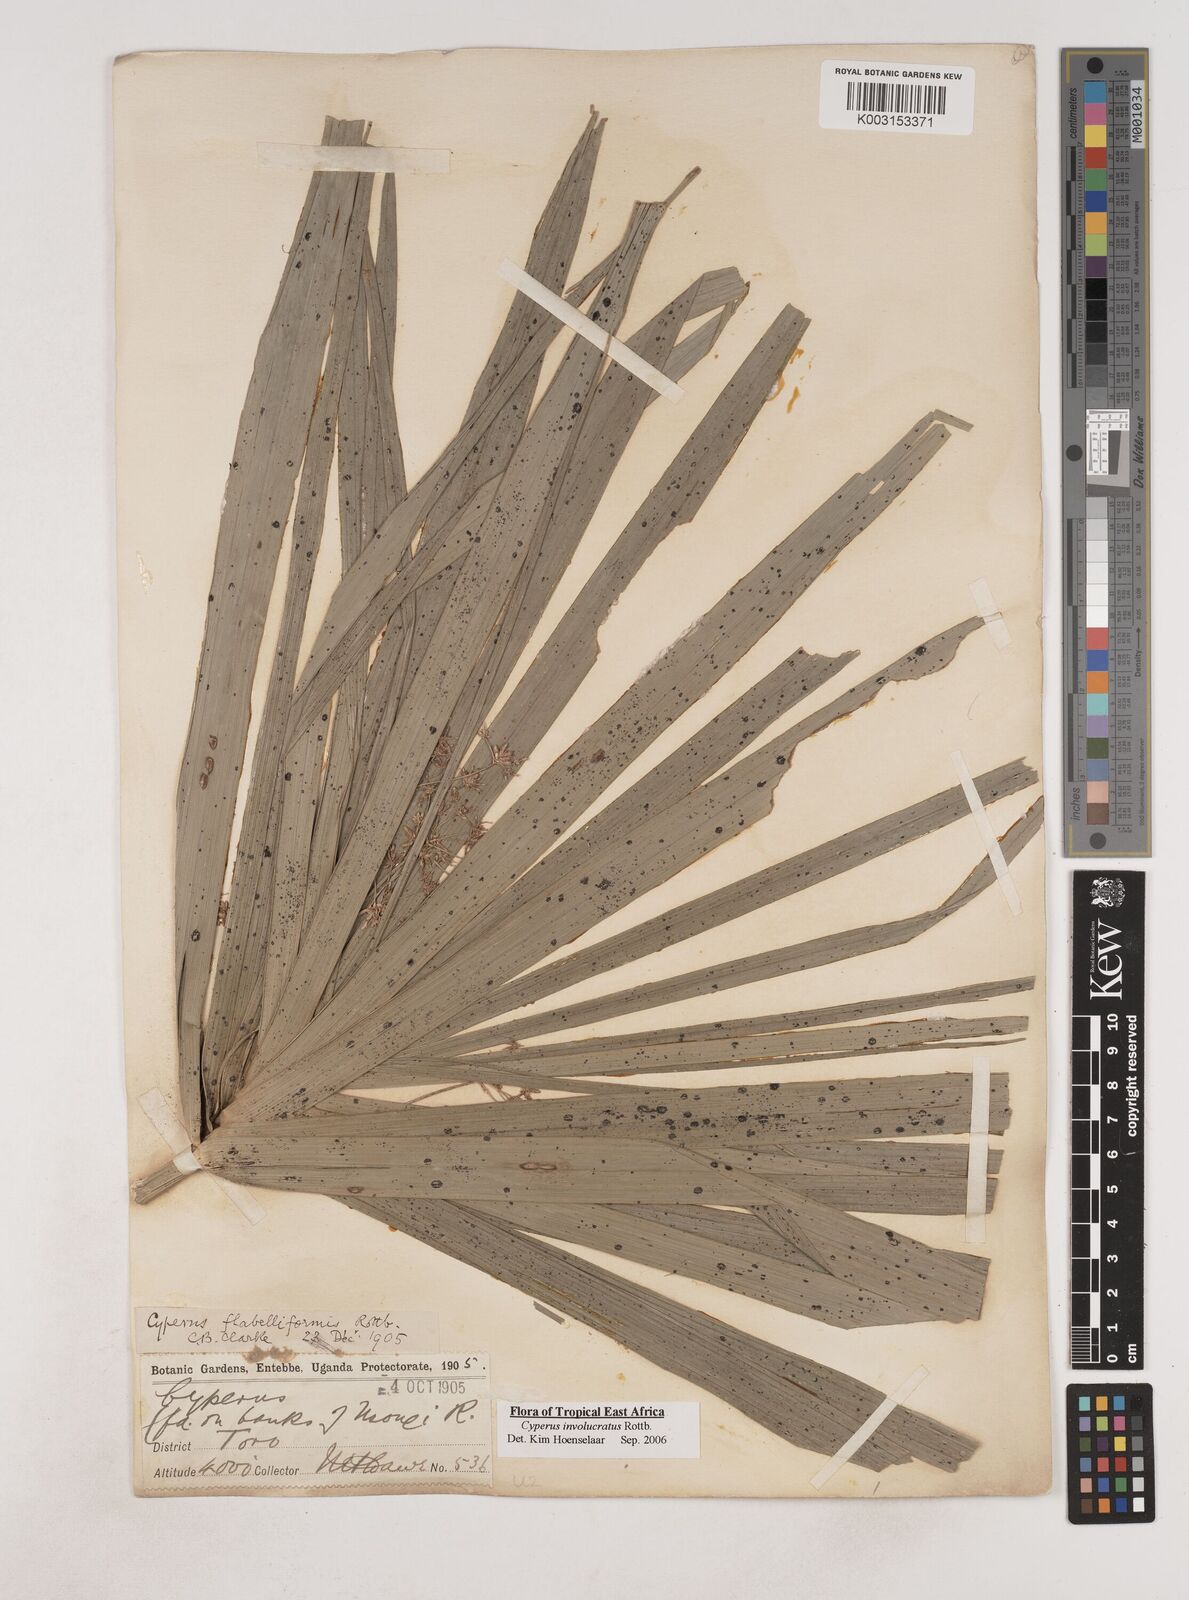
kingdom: Plantae
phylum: Tracheophyta
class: Liliopsida
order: Poales
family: Cyperaceae
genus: Cyperus
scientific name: Cyperus alternifolius
